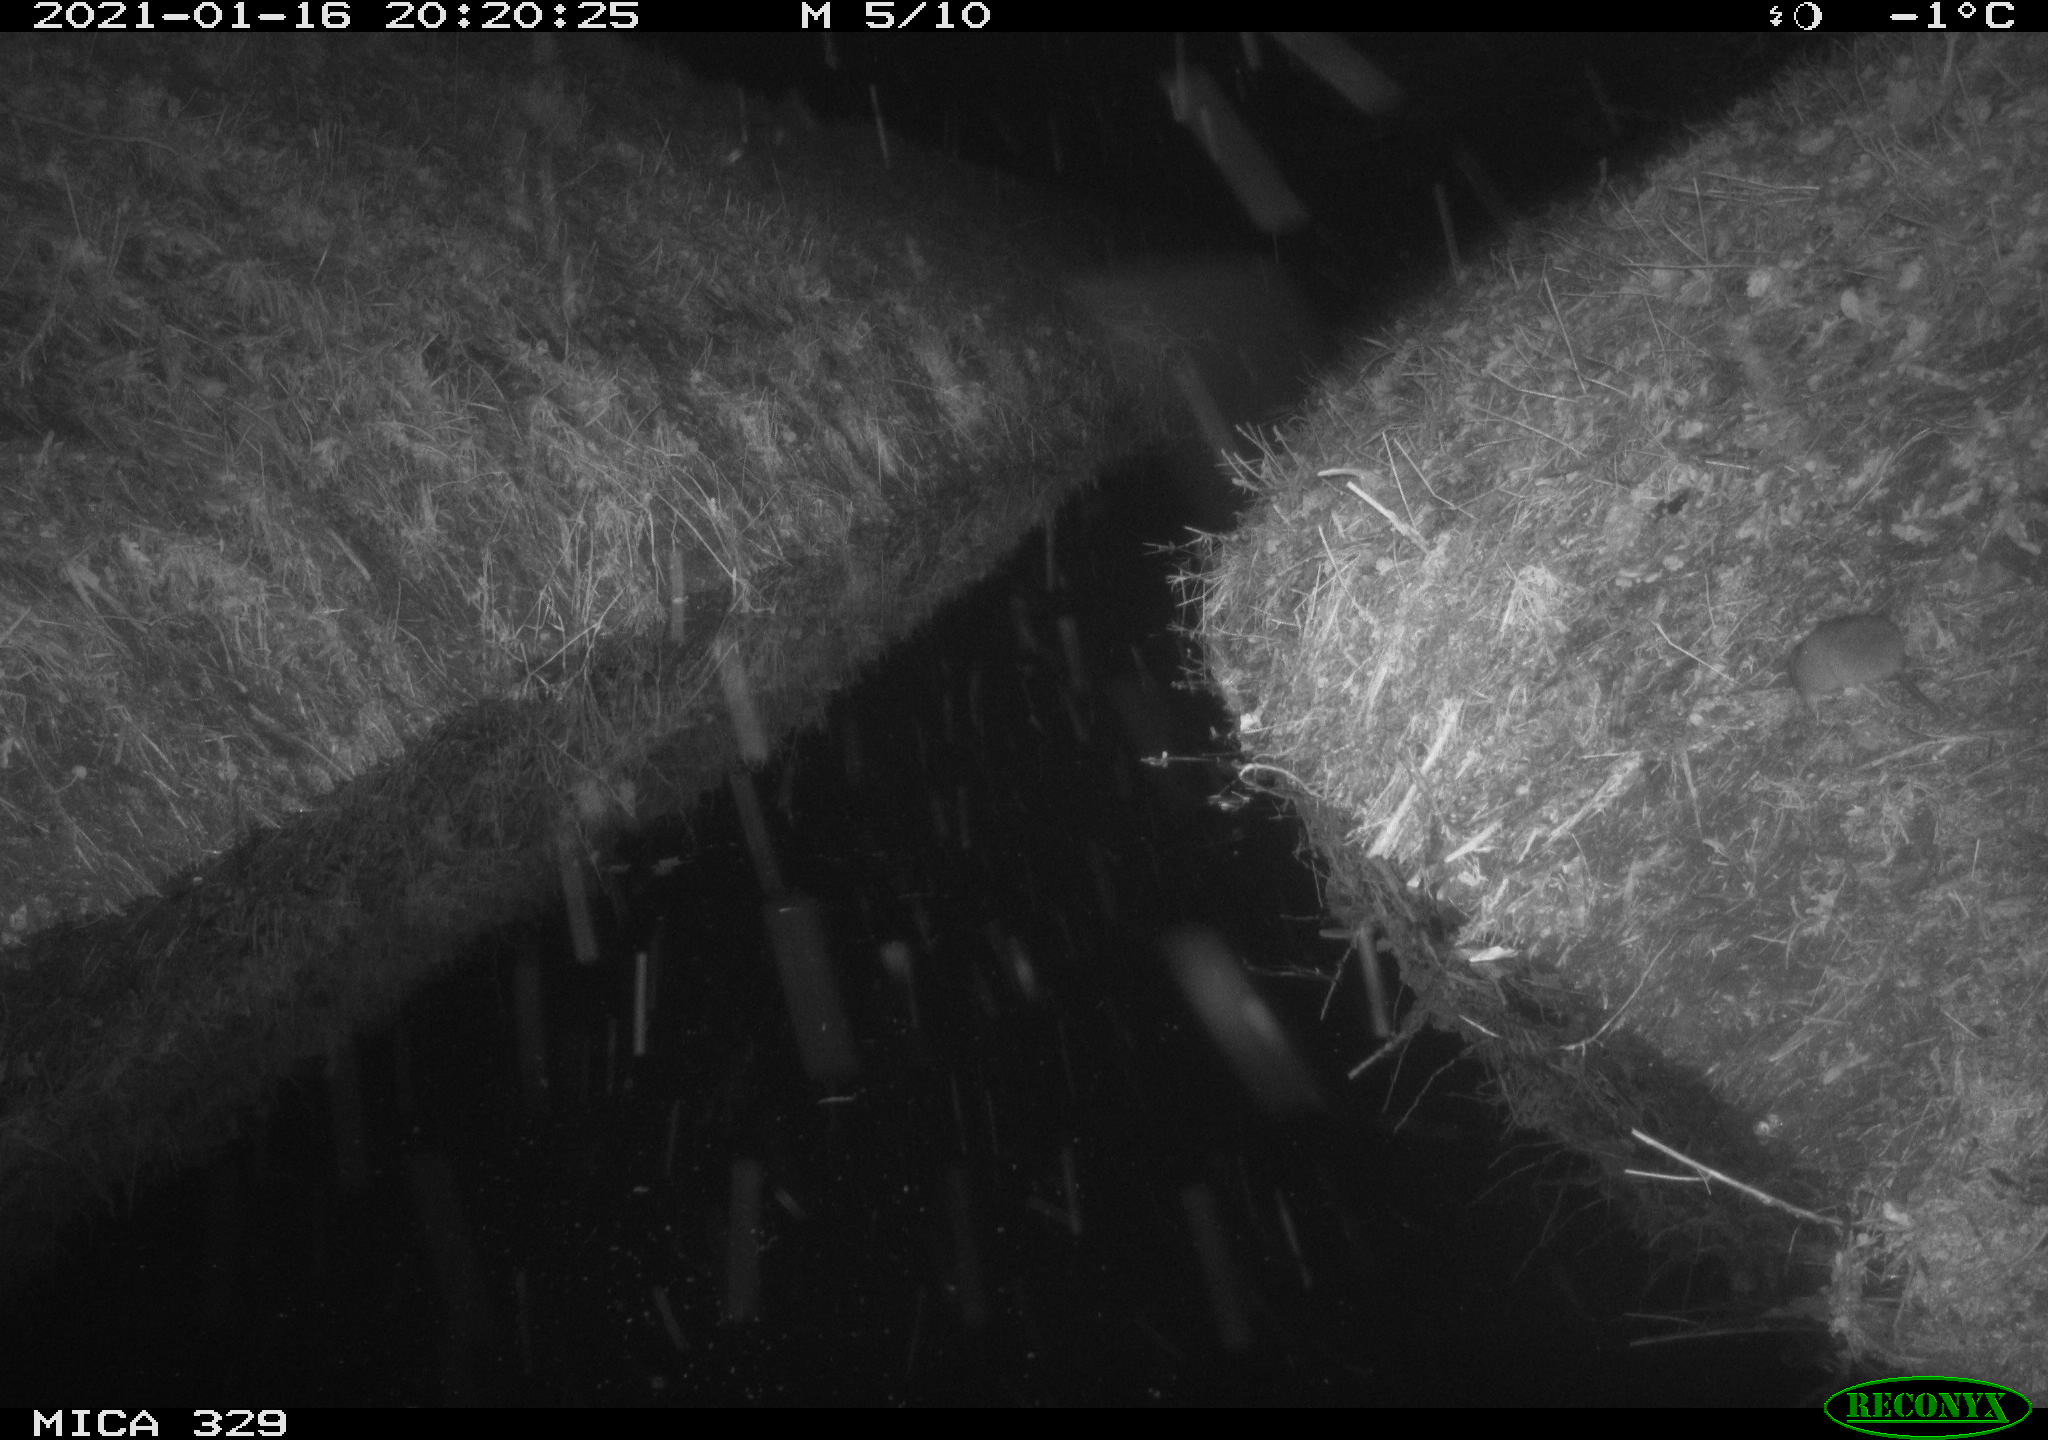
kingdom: Animalia
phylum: Chordata
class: Mammalia
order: Rodentia
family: Muridae
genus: Rattus
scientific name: Rattus norvegicus
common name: Brown rat
